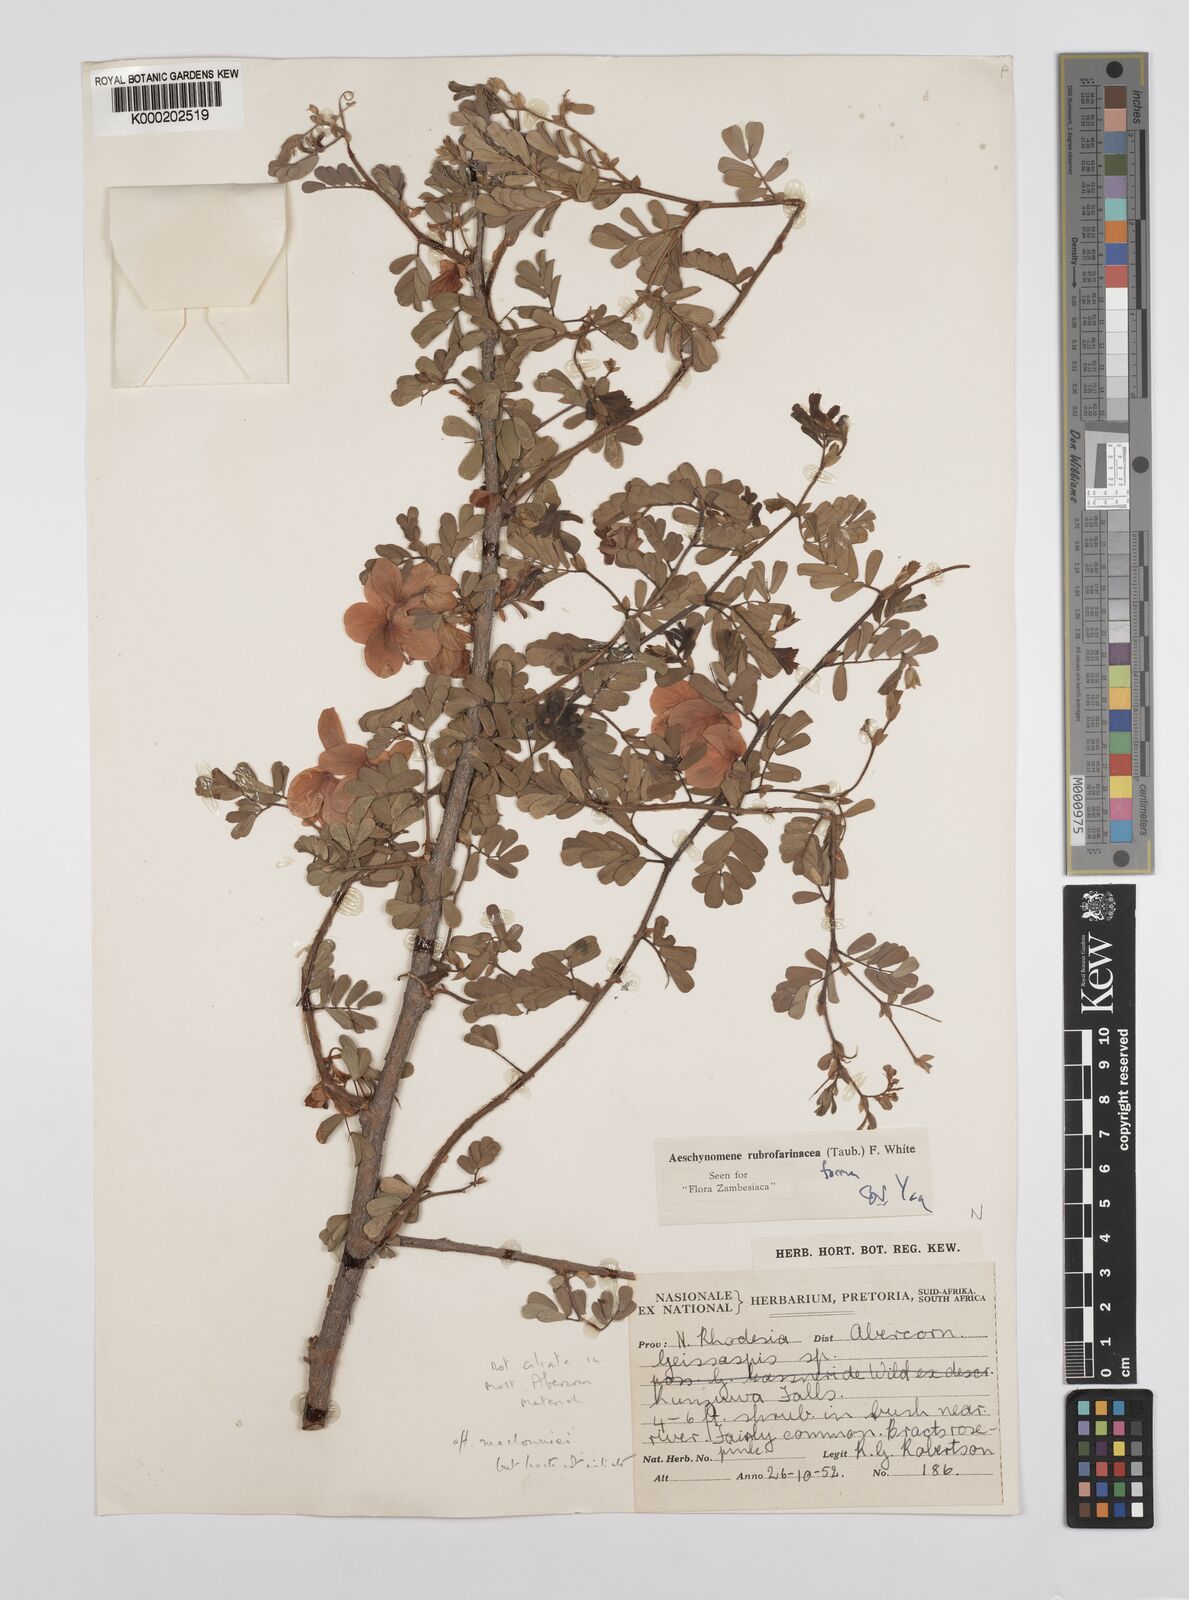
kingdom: Plantae
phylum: Tracheophyta
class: Magnoliopsida
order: Fabales
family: Fabaceae
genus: Aeschynomene
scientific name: Aeschynomene rubrofarinacea
